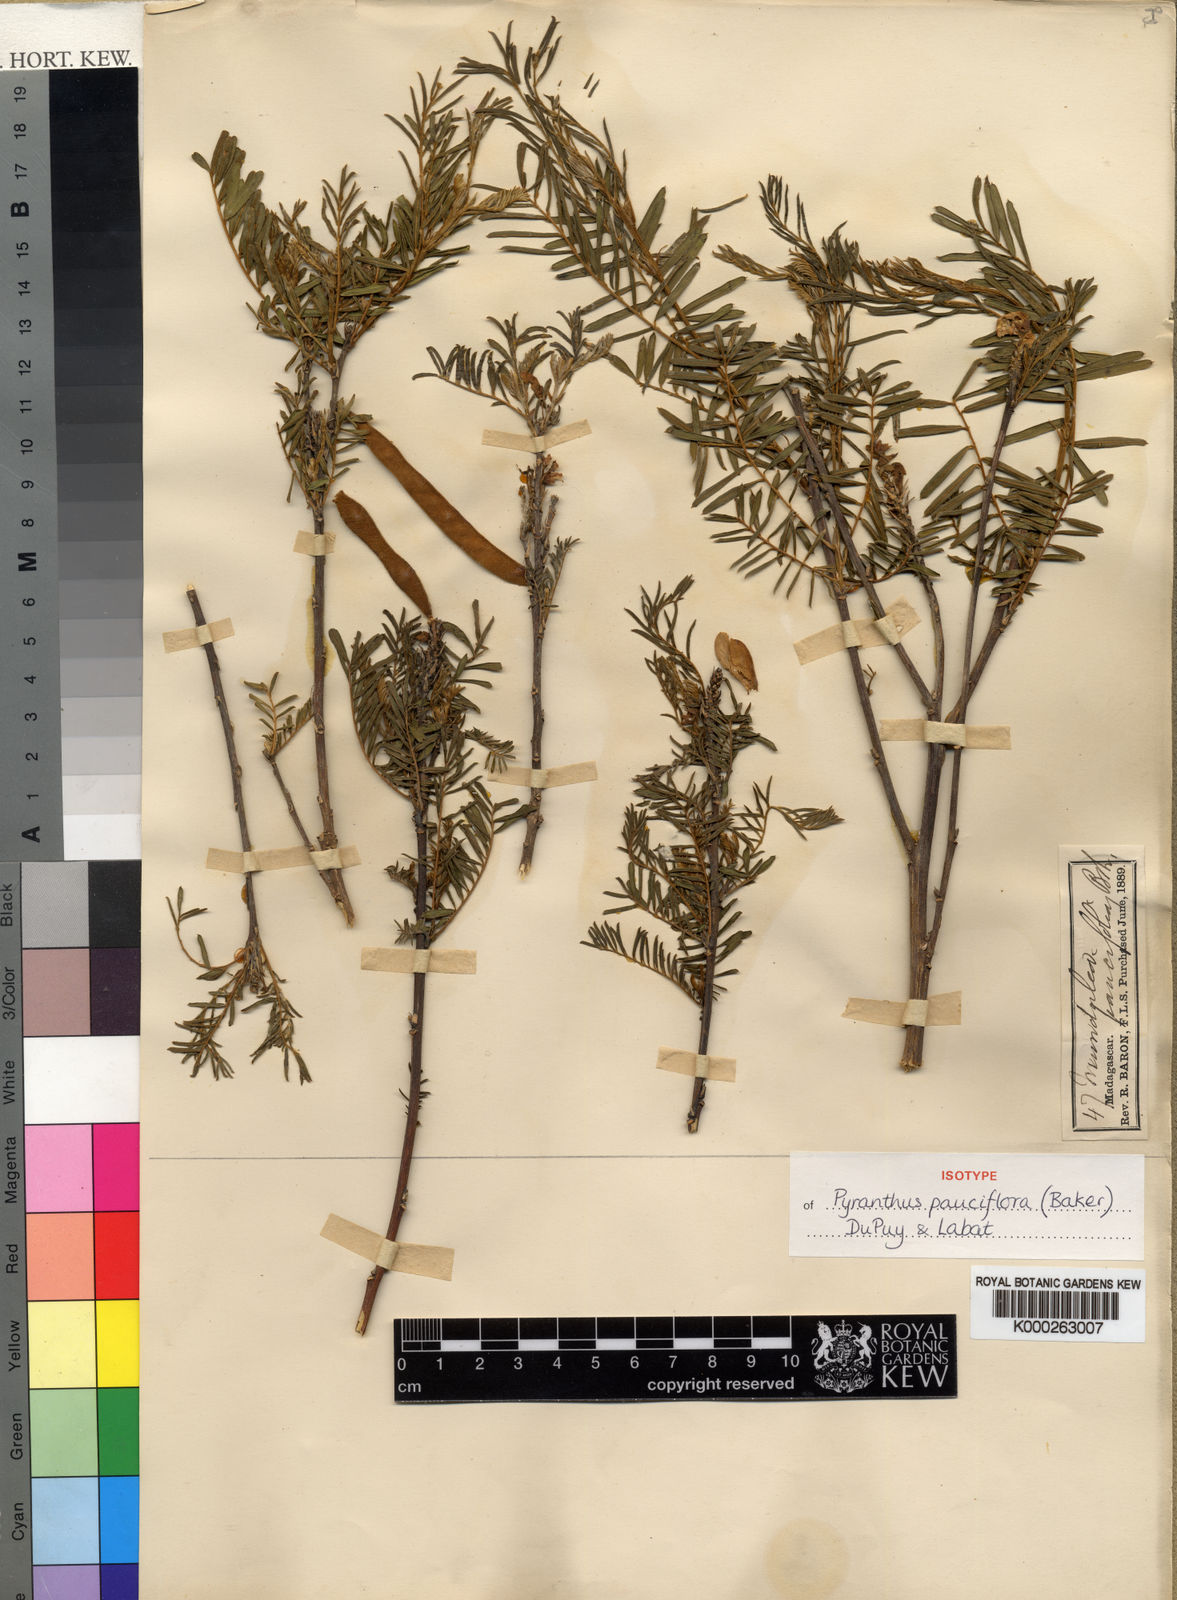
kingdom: Plantae
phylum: Tracheophyta
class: Magnoliopsida
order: Fabales
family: Fabaceae
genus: Pyranthus
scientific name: Pyranthus pauciflorus
